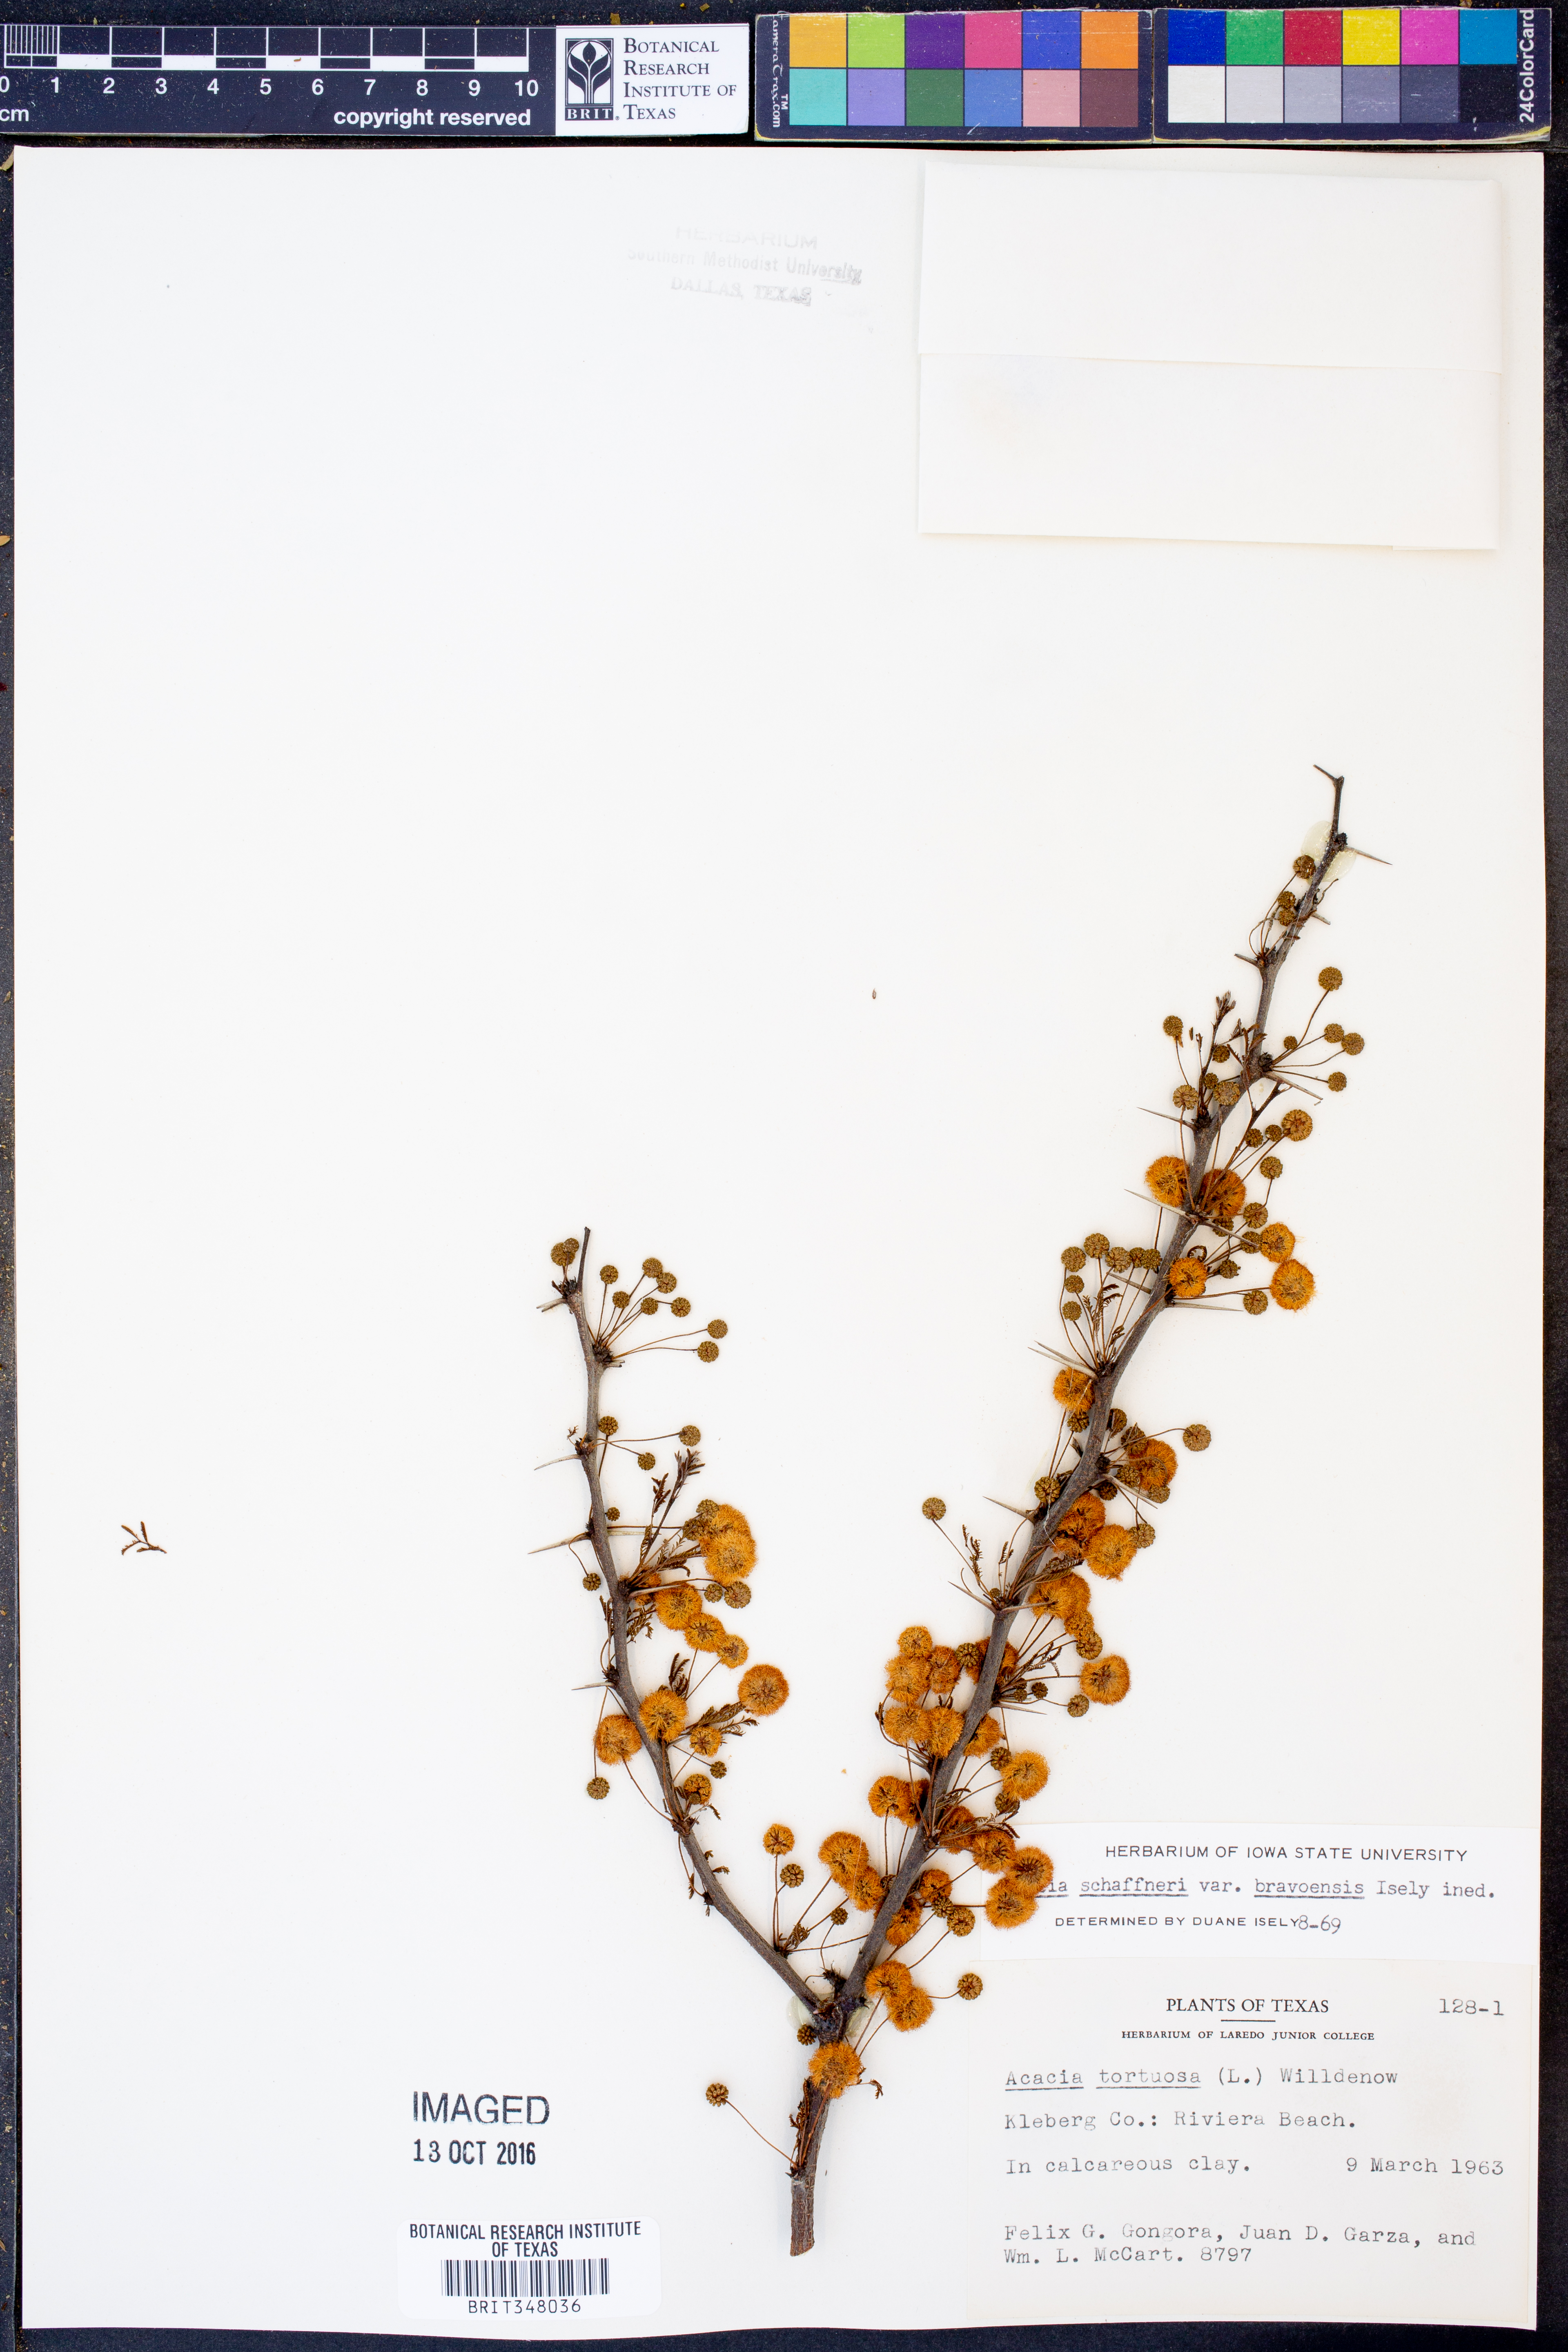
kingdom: Plantae
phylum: Tracheophyta
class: Magnoliopsida
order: Fabales
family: Fabaceae
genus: Vachellia
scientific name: Vachellia bravoensis
